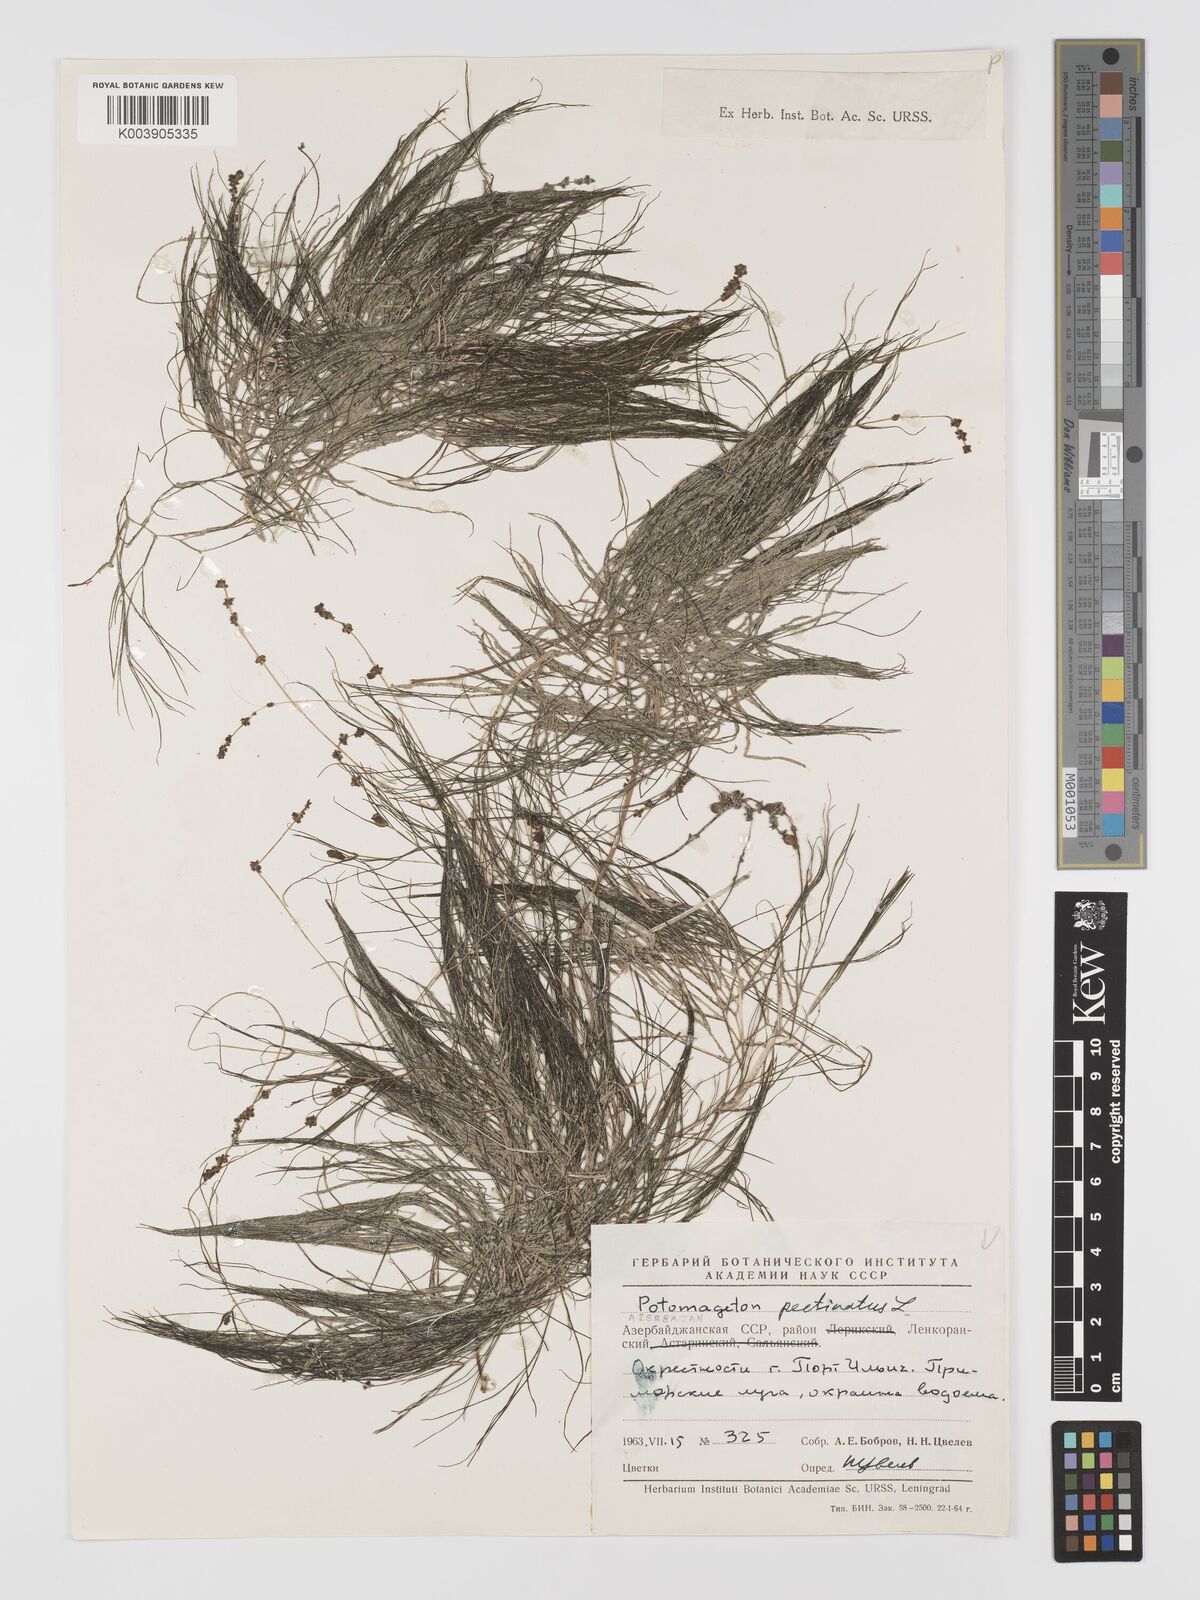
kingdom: Plantae
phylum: Tracheophyta
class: Liliopsida
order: Alismatales
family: Potamogetonaceae
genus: Stuckenia
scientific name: Stuckenia pectinata
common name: Sago pondweed
